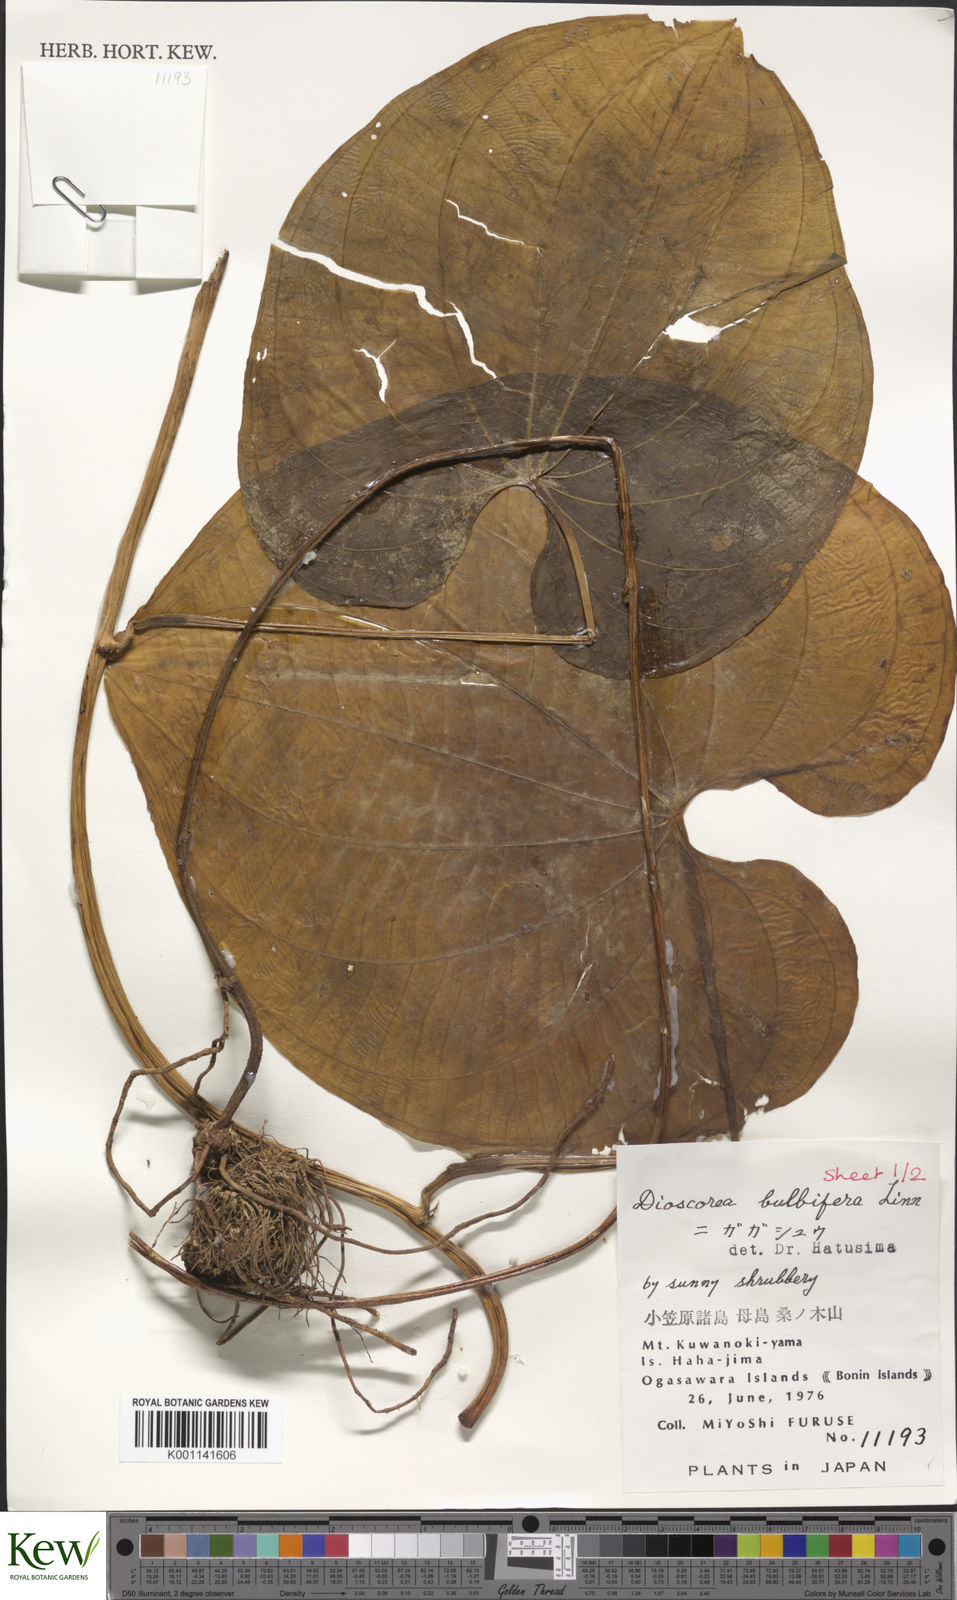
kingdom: Plantae
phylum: Tracheophyta
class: Liliopsida
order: Dioscoreales
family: Dioscoreaceae
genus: Dioscorea
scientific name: Dioscorea bulbifera
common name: Air yam
